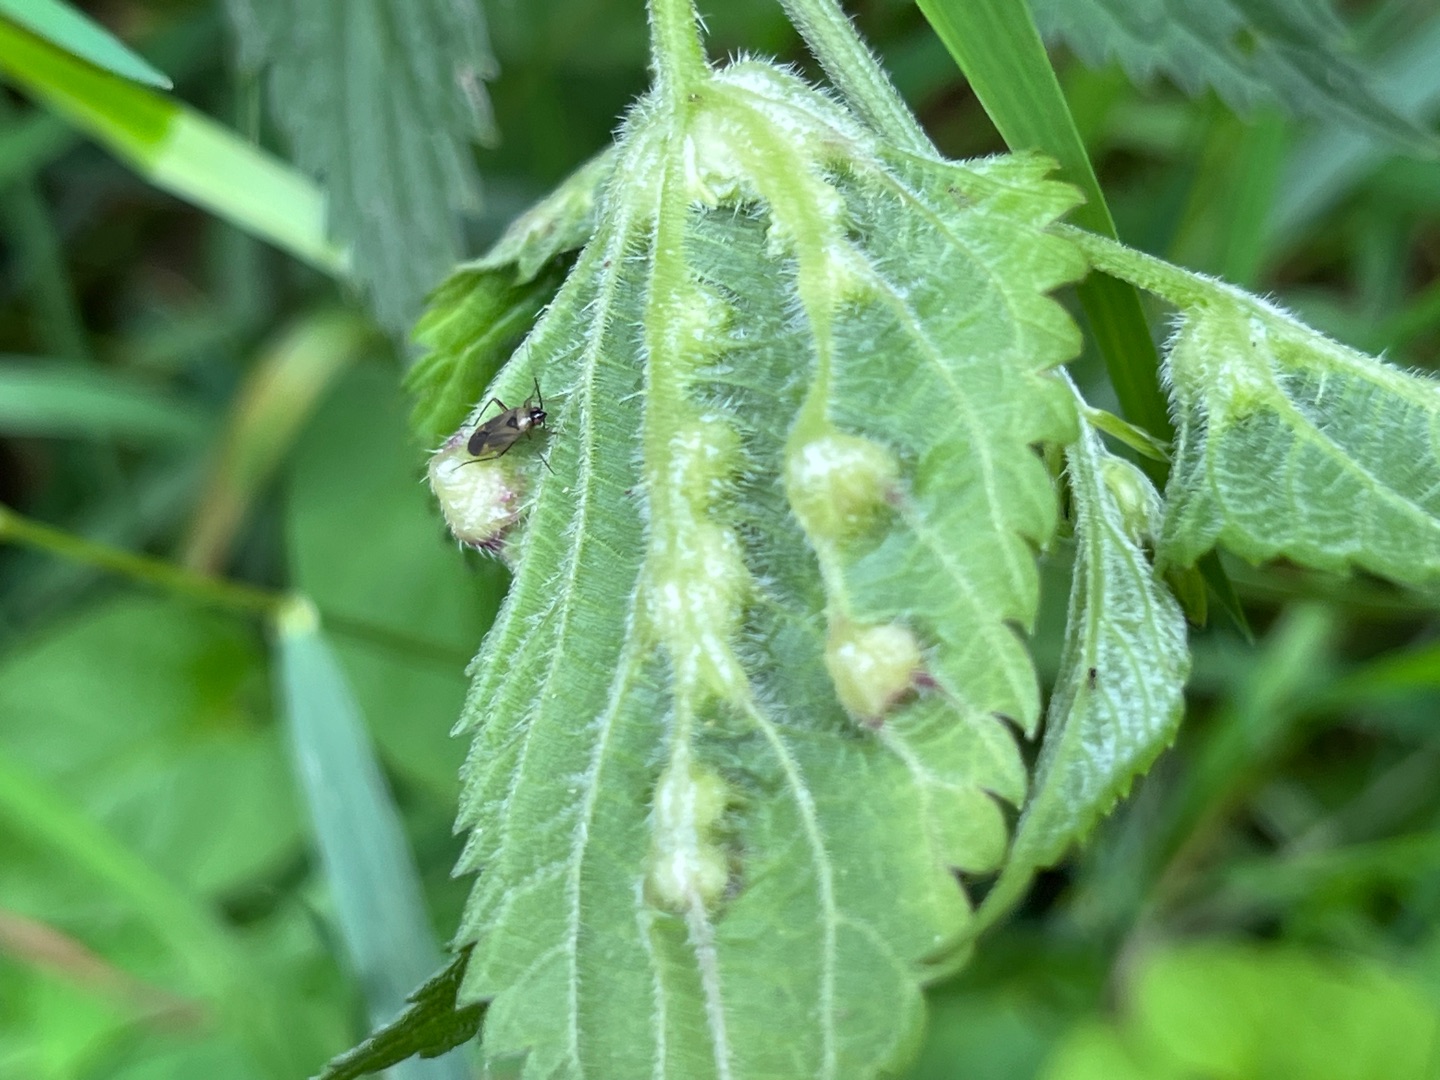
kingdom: Animalia
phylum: Arthropoda
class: Insecta
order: Diptera
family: Cecidomyiidae
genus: Dasineura
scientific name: Dasineura urticae
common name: Nældepunggalmyg
